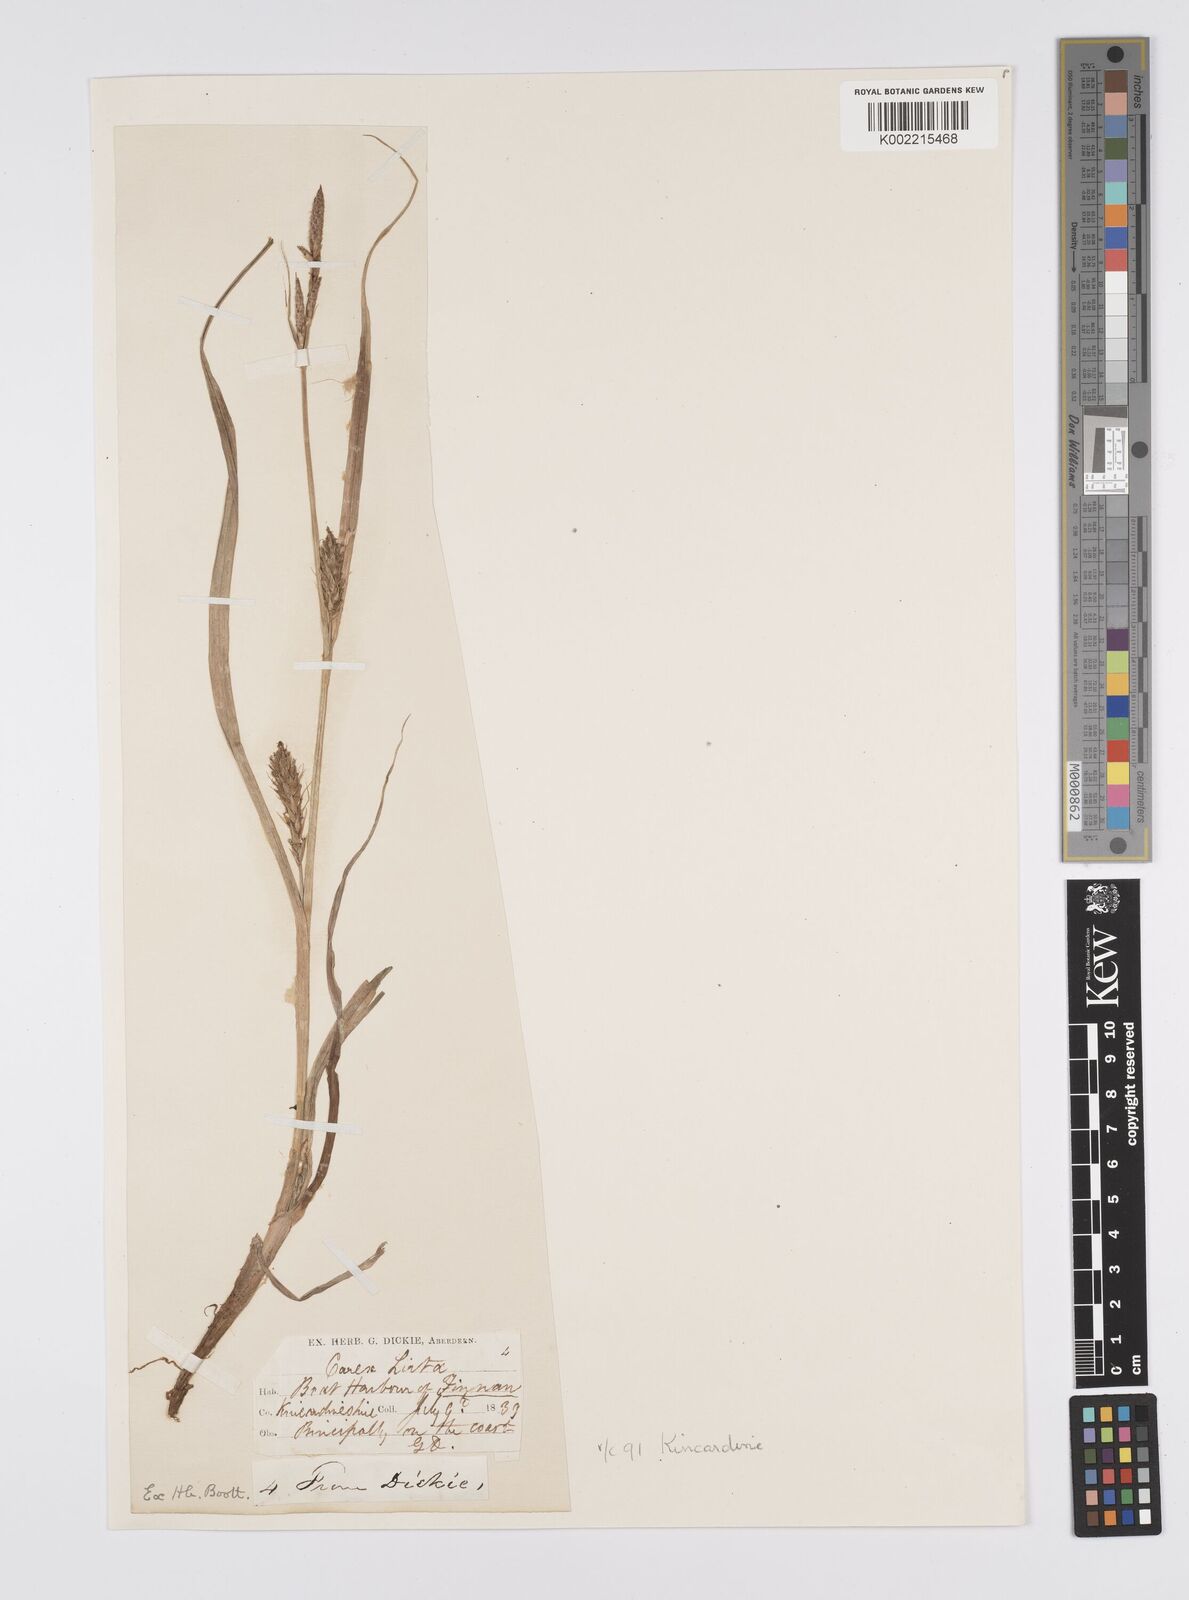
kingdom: Plantae
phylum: Tracheophyta
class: Liliopsida
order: Poales
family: Cyperaceae
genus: Carex
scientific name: Carex hirta
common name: Hairy sedge
